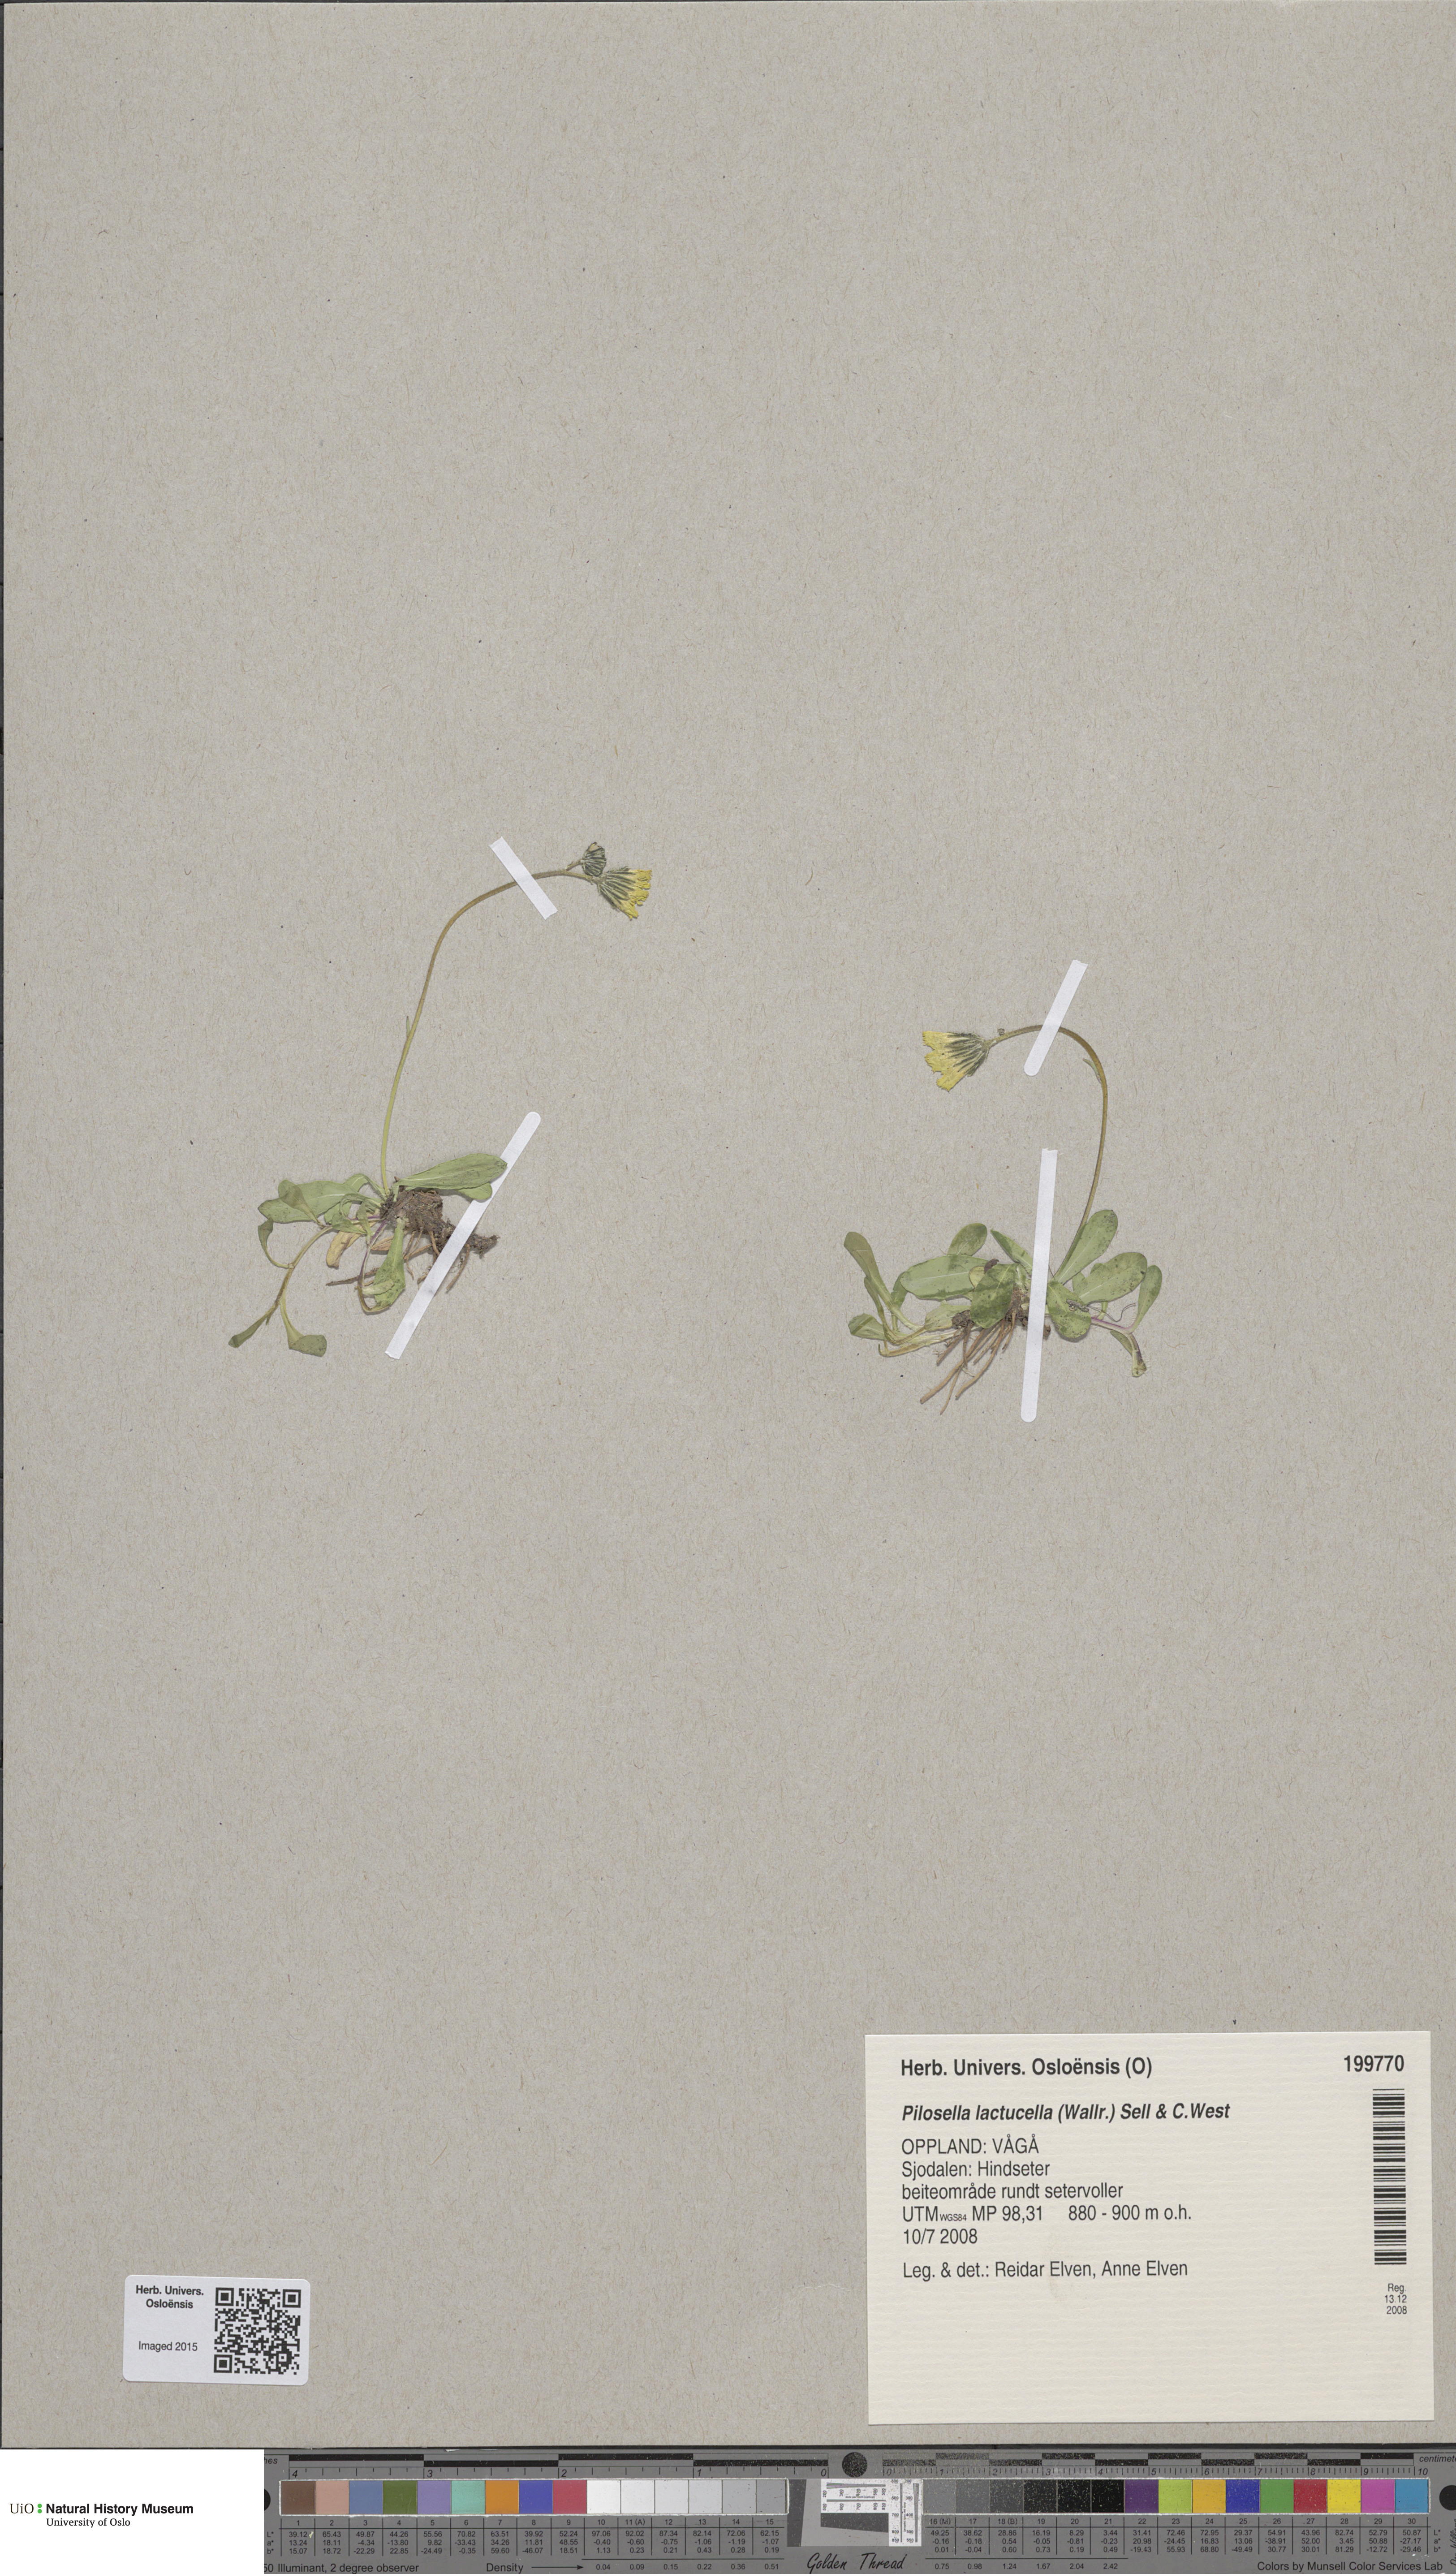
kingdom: Plantae
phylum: Tracheophyta
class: Magnoliopsida
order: Asterales
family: Asteraceae
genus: Pilosella
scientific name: Pilosella lactucella
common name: Glaucous fox-and-cubs
